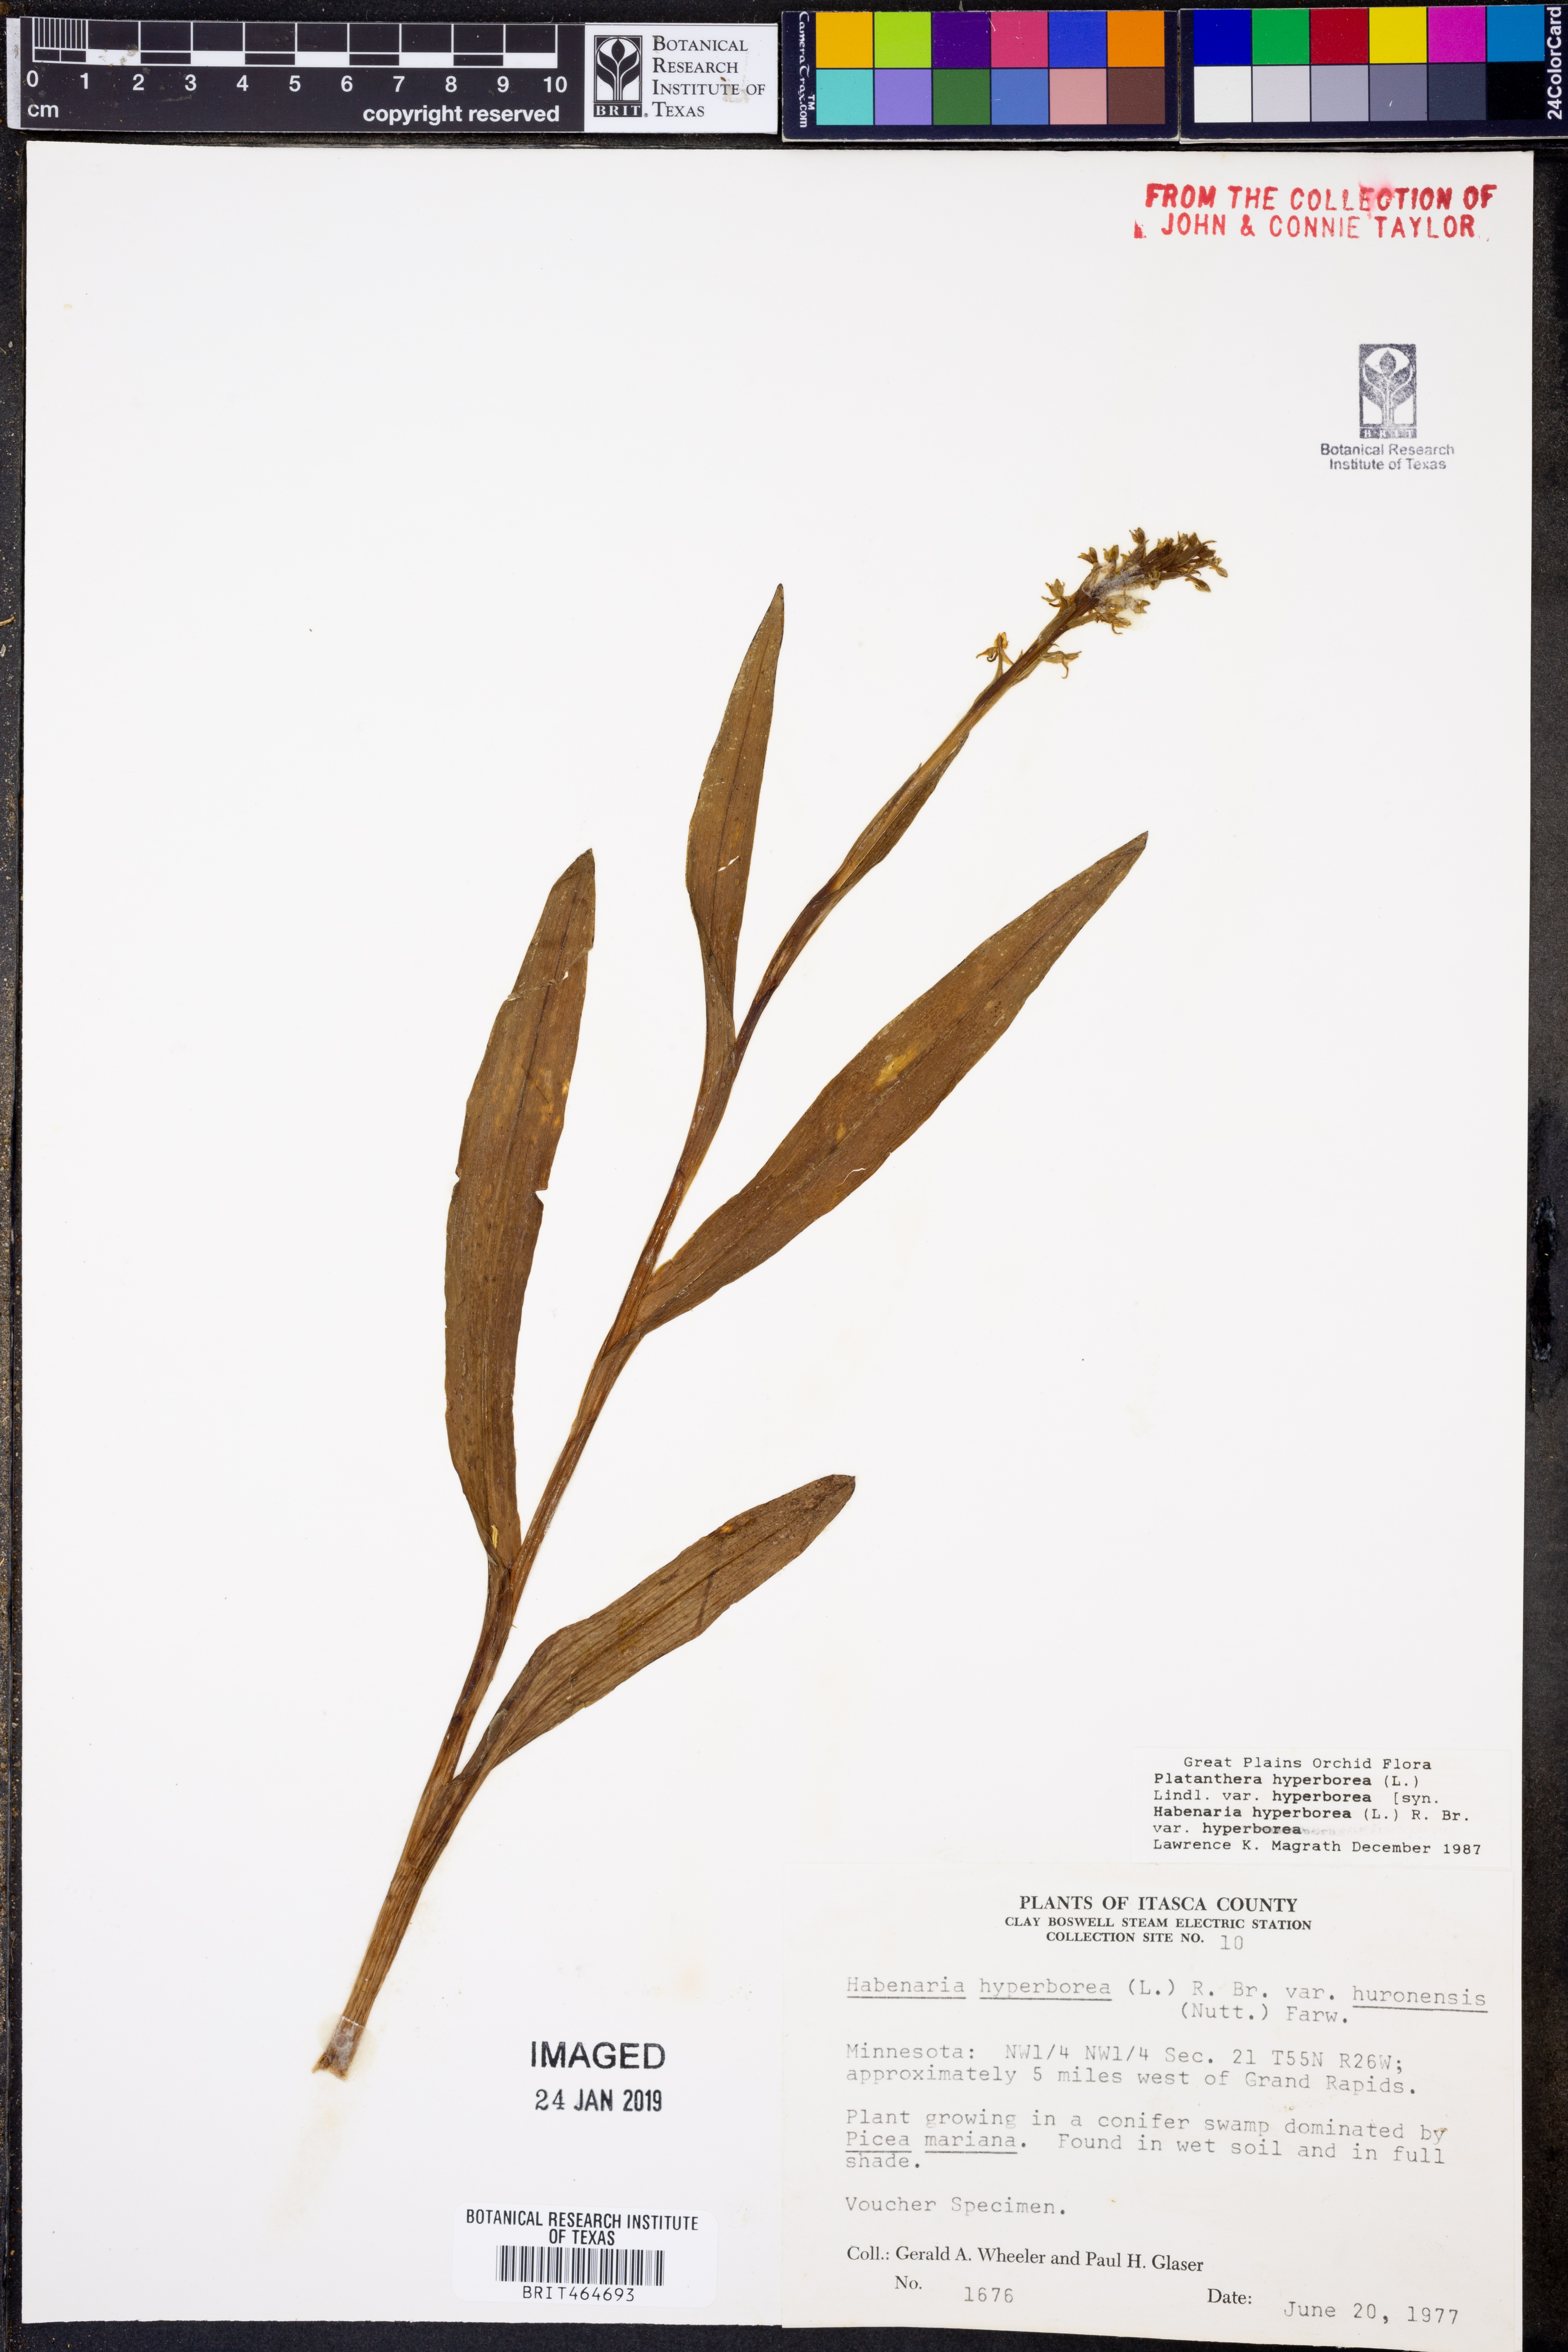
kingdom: Plantae
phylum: Tracheophyta
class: Liliopsida
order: Asparagales
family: Orchidaceae
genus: Platanthera
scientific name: Platanthera hyperborea
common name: Northern green orchid
